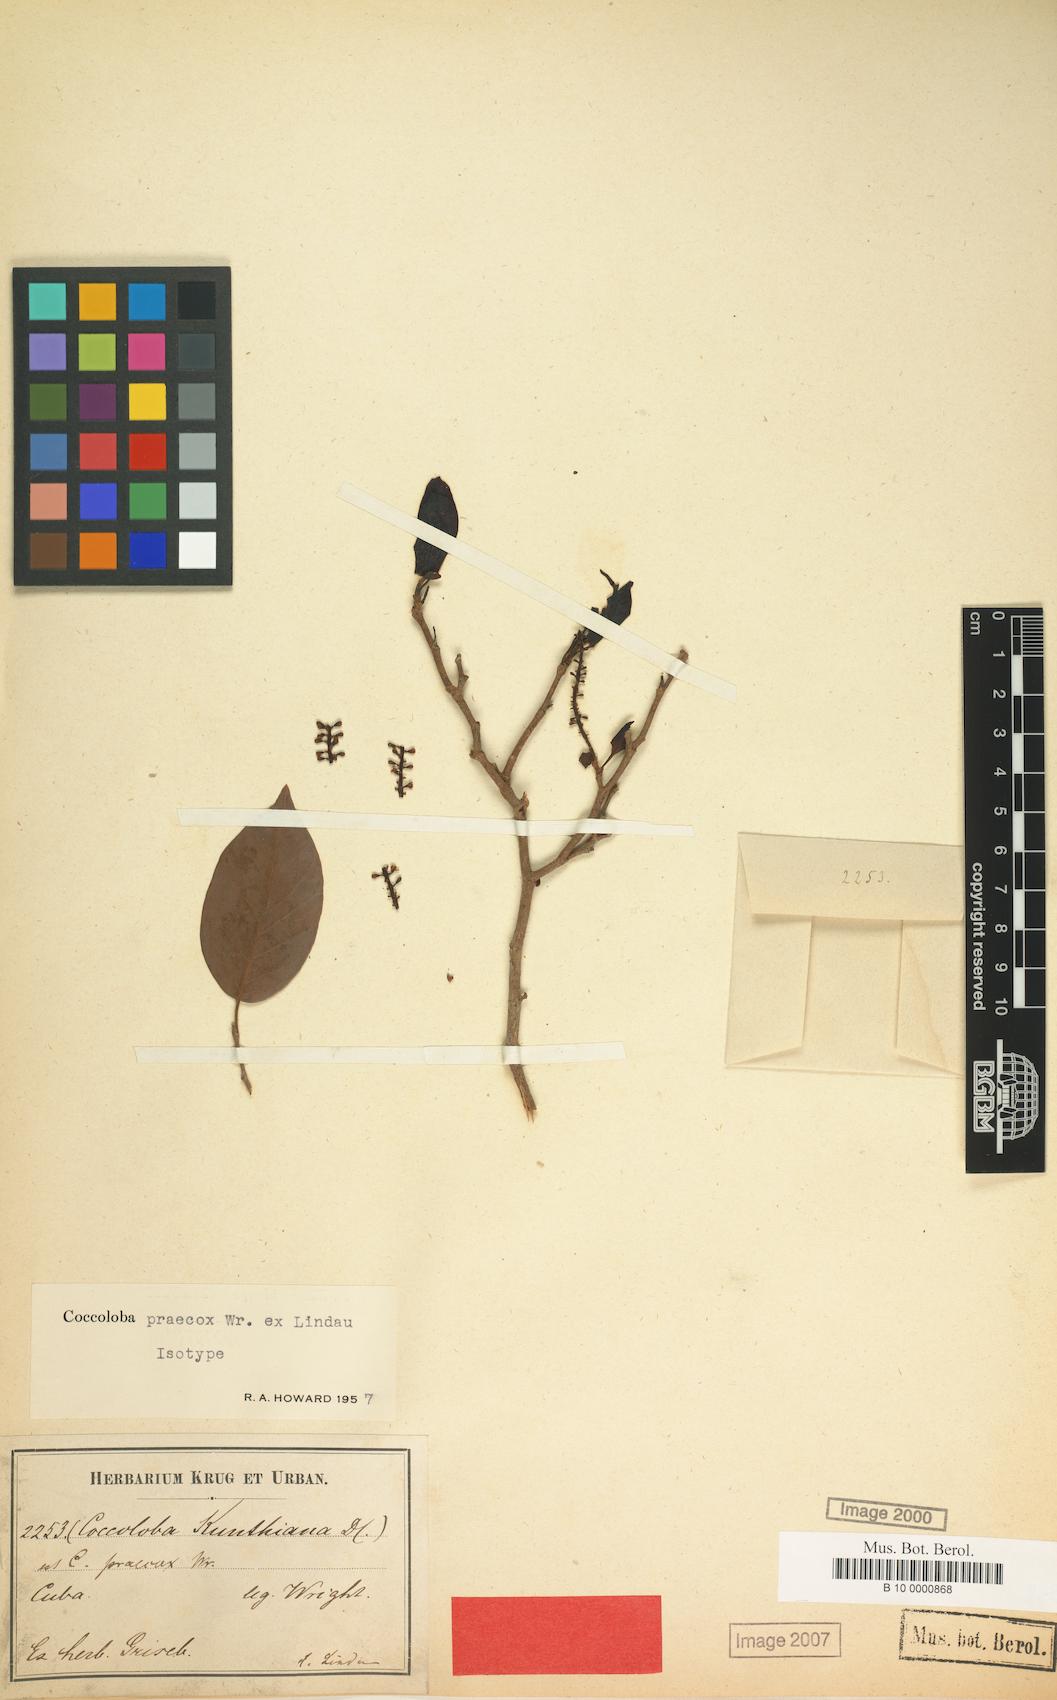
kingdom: Plantae
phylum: Tracheophyta
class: Magnoliopsida
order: Caryophyllales
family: Polygonaceae
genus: Coccoloba
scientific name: Coccoloba praecox
